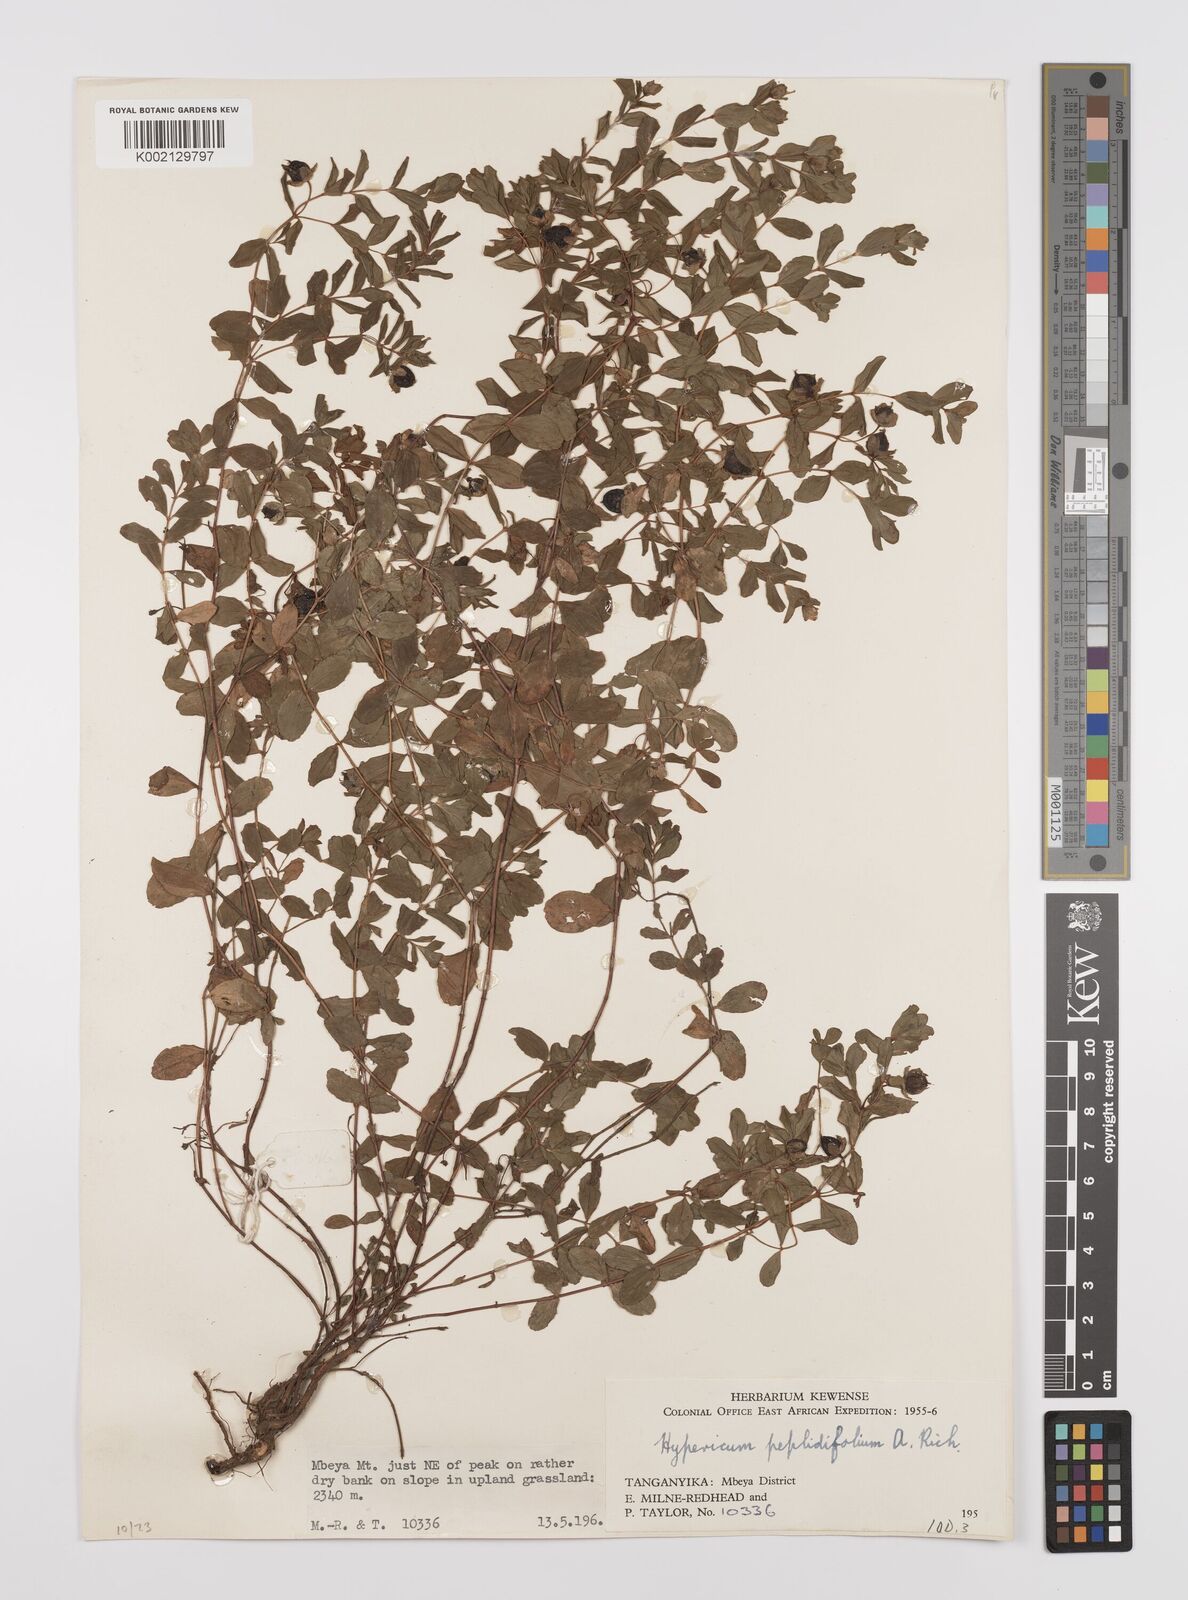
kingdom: Plantae
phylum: Tracheophyta
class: Magnoliopsida
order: Malpighiales
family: Hypericaceae
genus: Hypericum
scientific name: Hypericum peplidifolium
